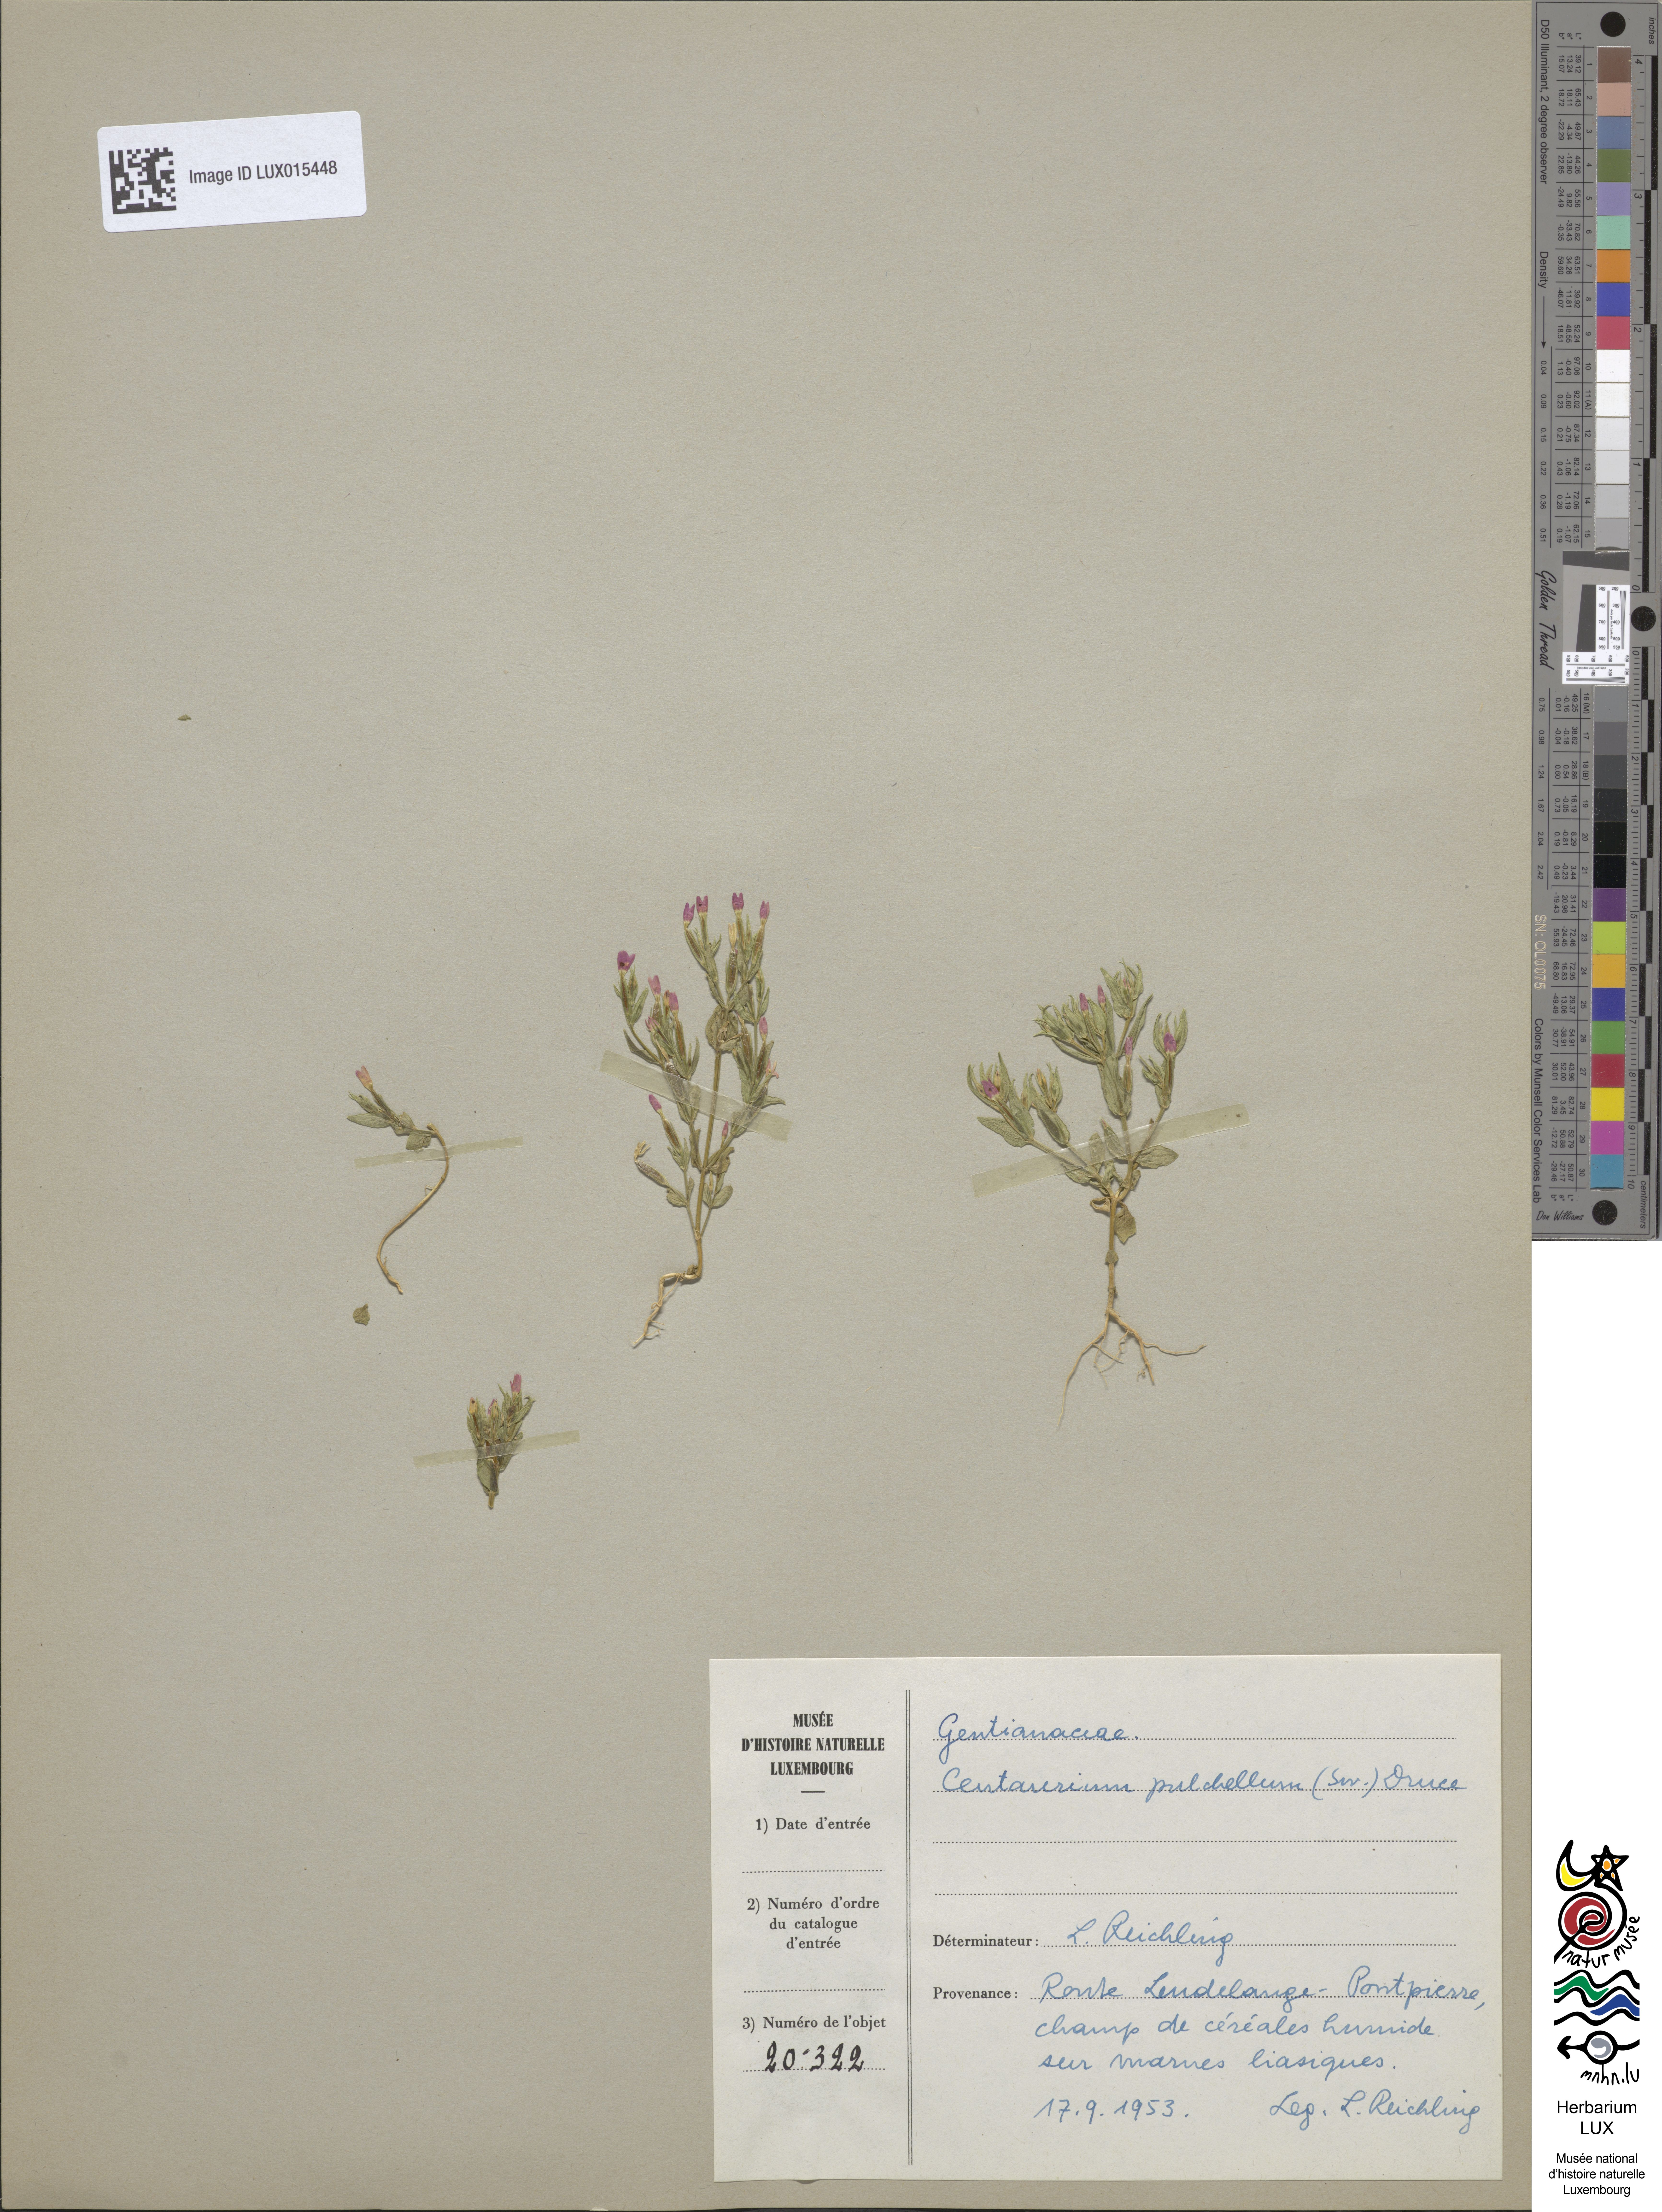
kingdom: Plantae
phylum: Tracheophyta
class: Magnoliopsida
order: Gentianales
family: Gentianaceae
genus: Centaurium
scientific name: Centaurium pulchellum
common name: Lesser centaury
